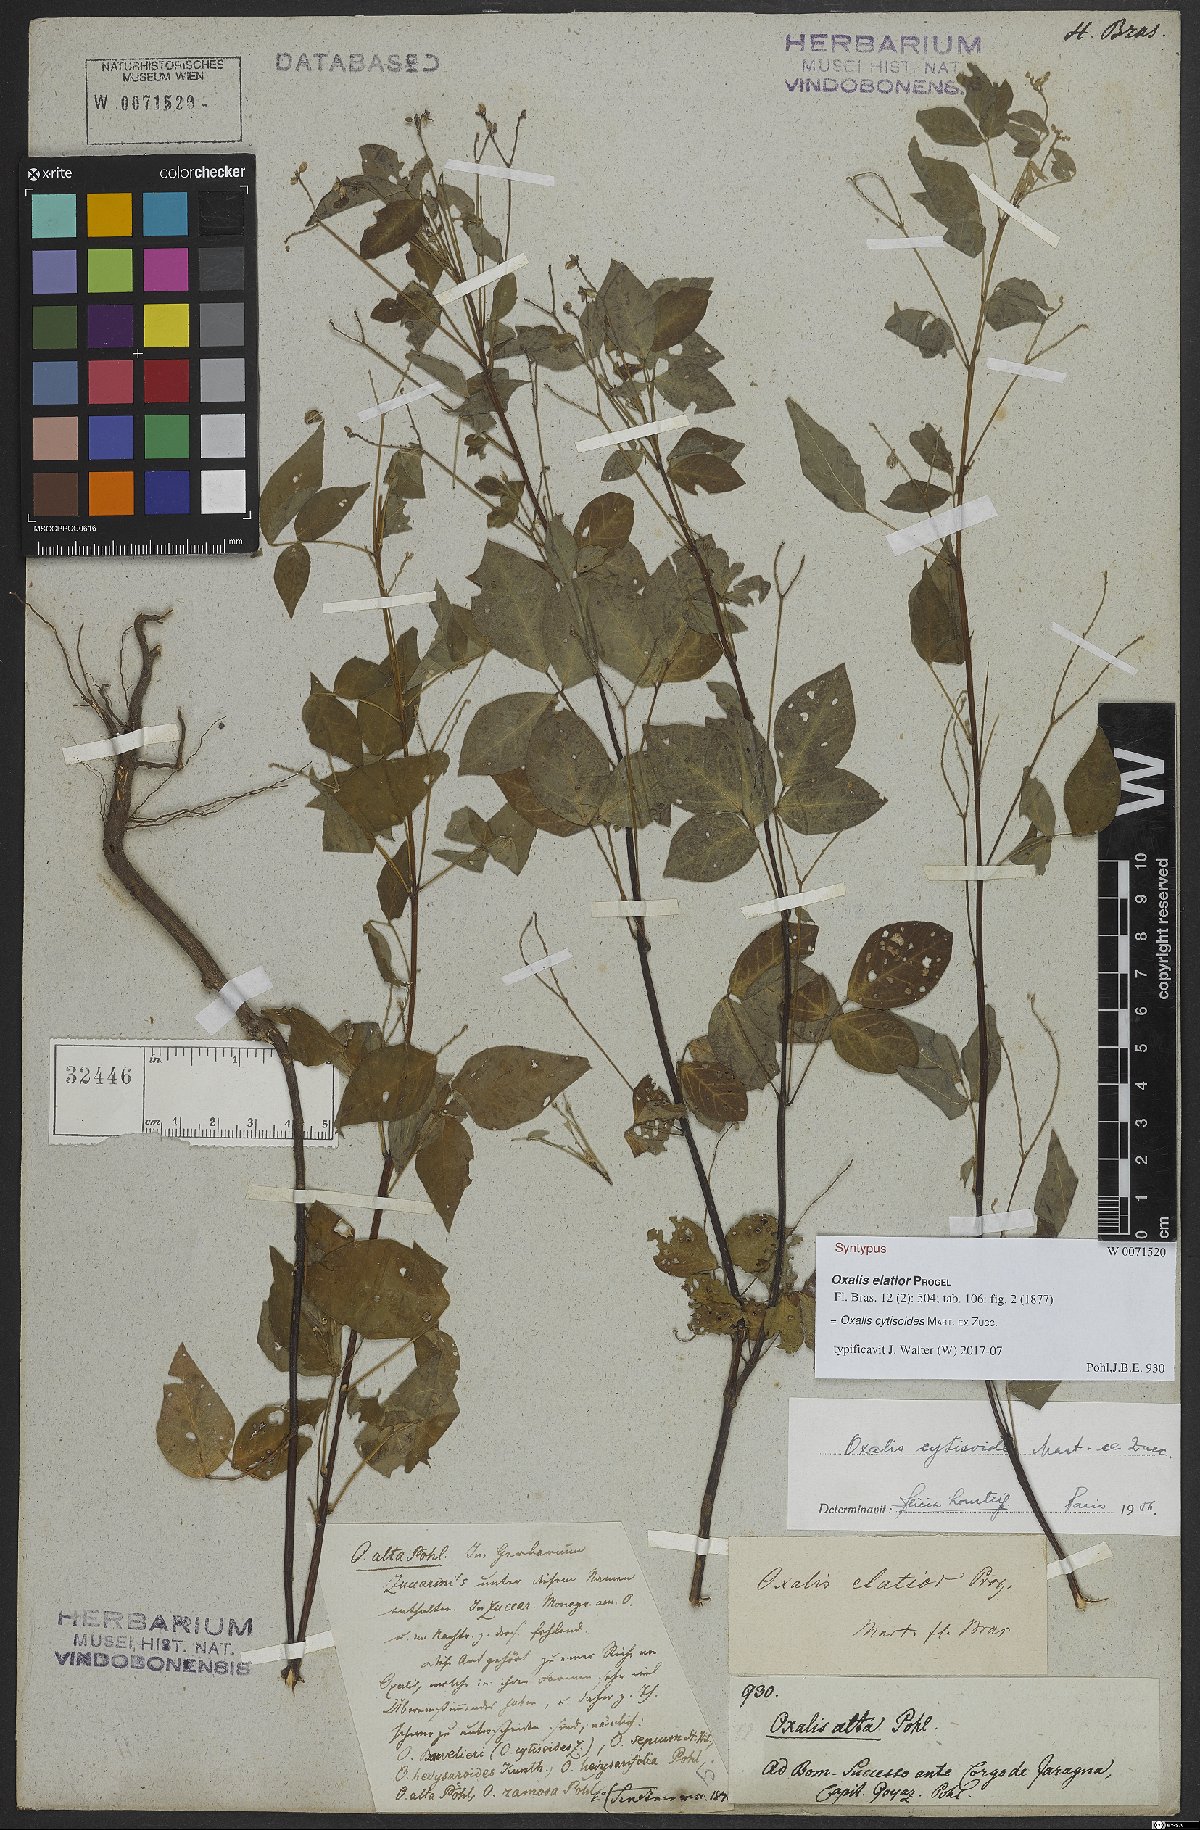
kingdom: Plantae
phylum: Tracheophyta
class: Magnoliopsida
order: Oxalidales
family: Oxalidaceae
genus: Oxalis
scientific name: Oxalis cytisoides
